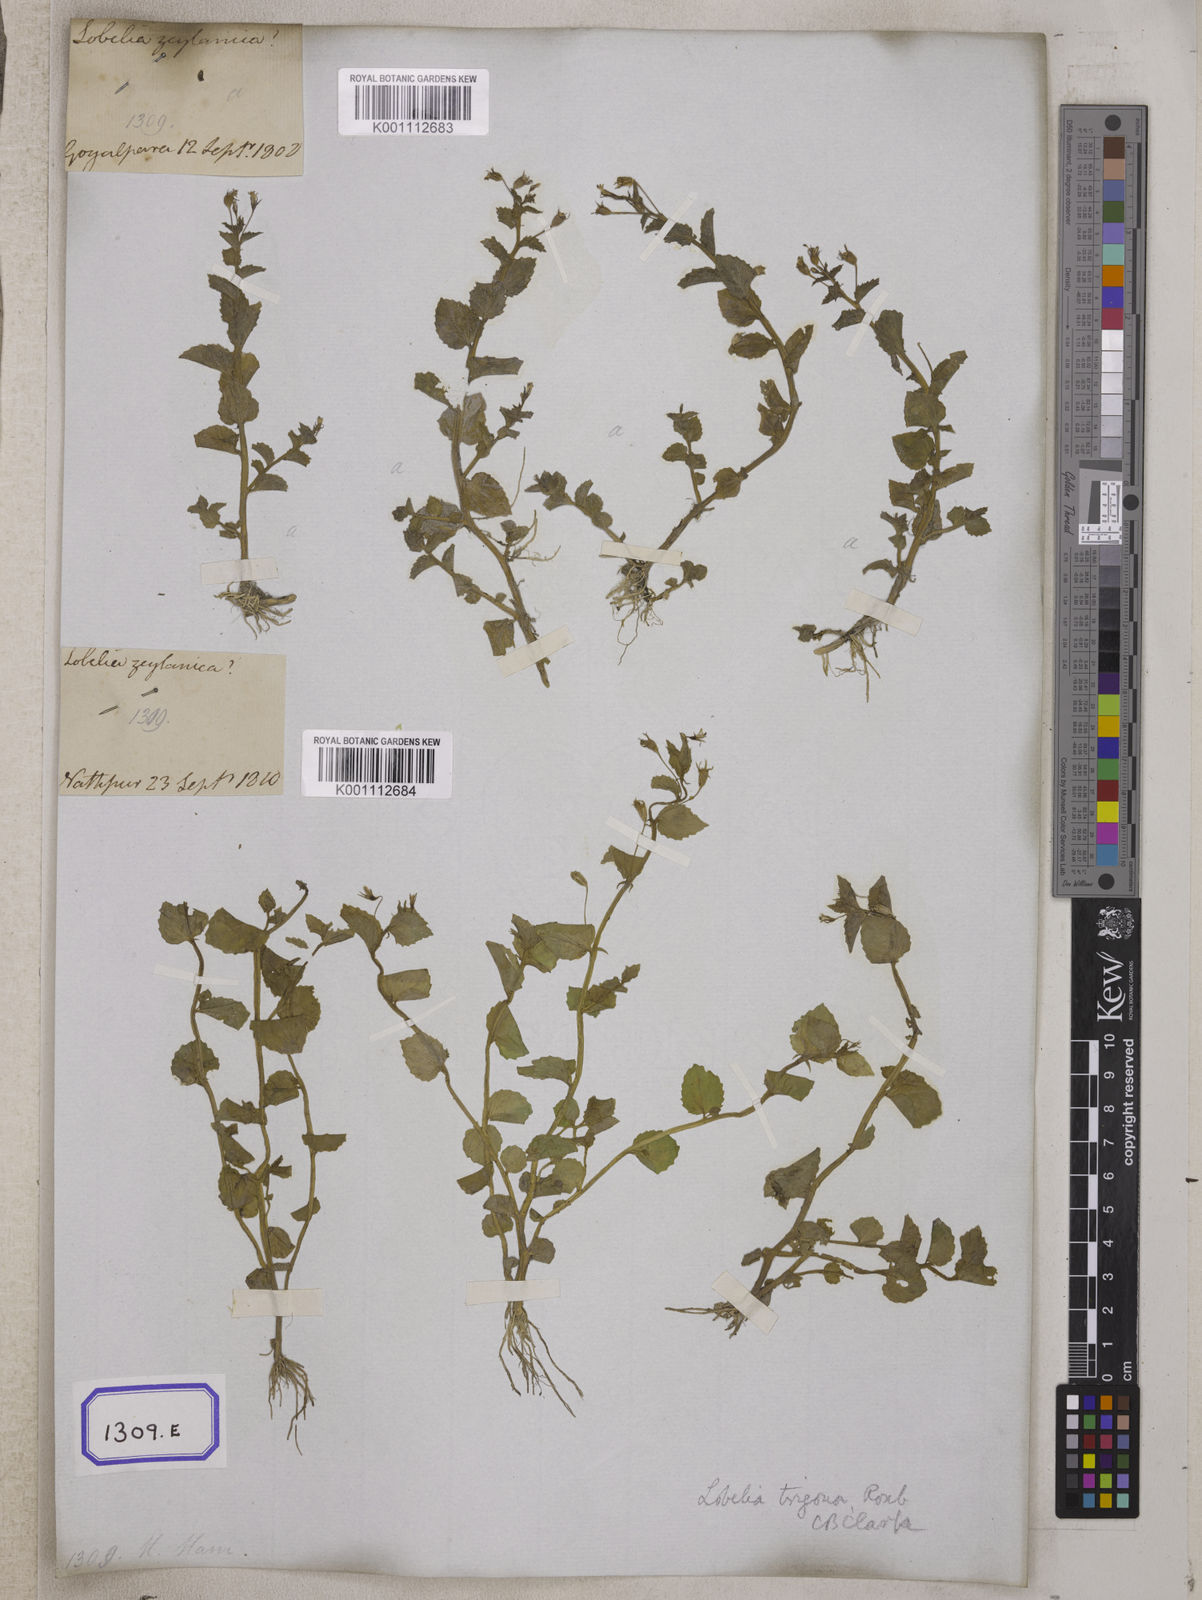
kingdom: Plantae
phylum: Tracheophyta
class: Magnoliopsida
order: Asterales
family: Campanulaceae
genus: Lobelia
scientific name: Lobelia alsinoides
